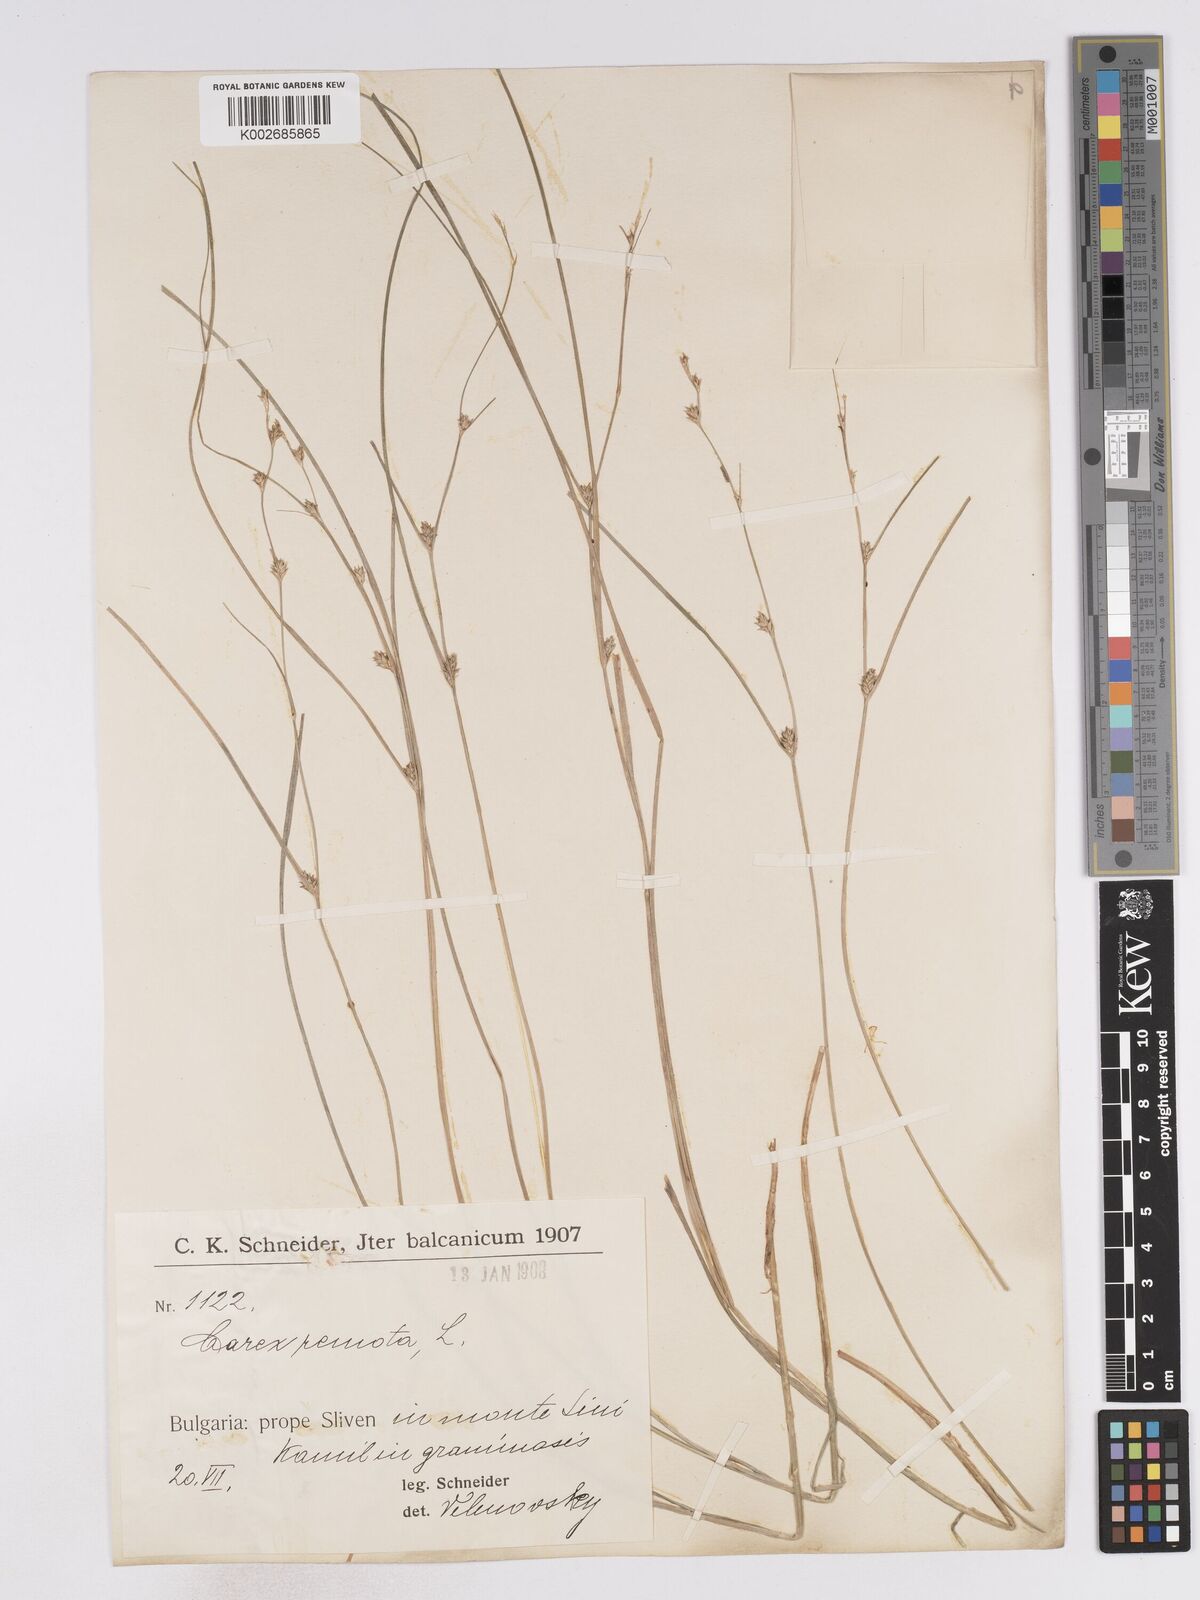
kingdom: Plantae
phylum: Tracheophyta
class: Liliopsida
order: Poales
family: Cyperaceae
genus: Carex
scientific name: Carex remota
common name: Remote sedge
